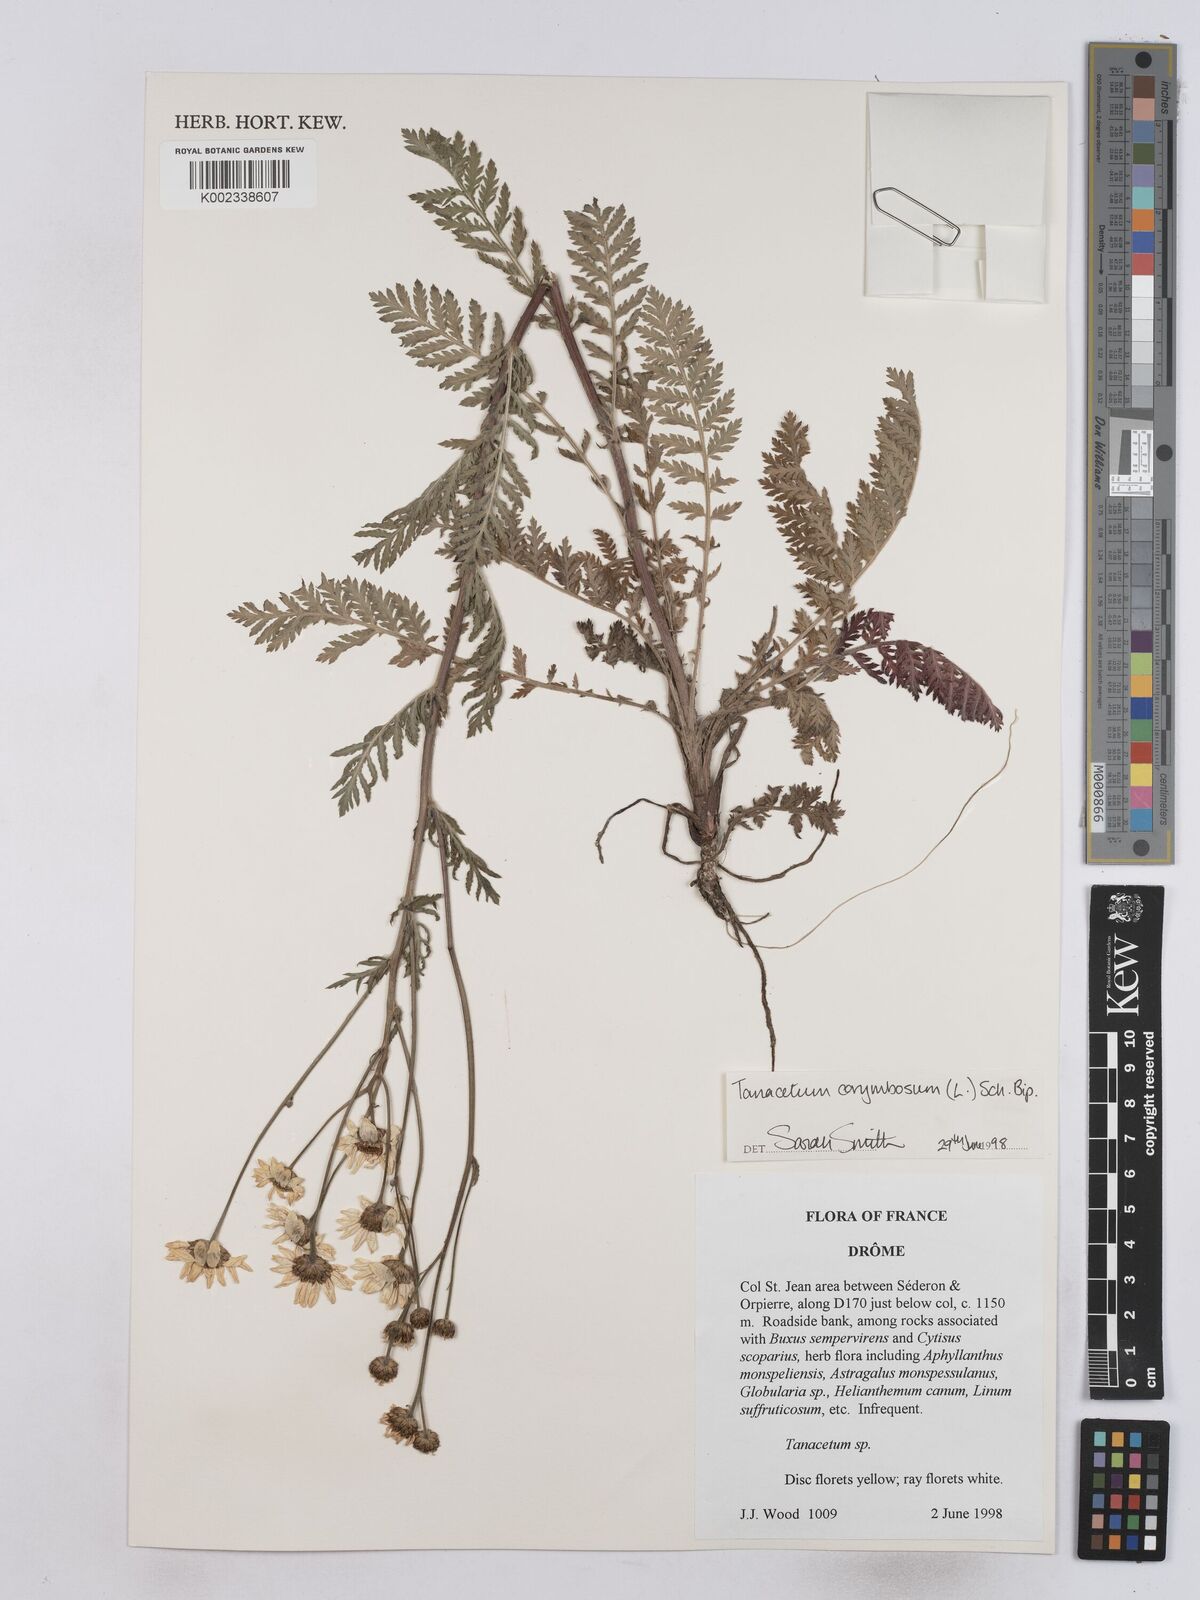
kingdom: Plantae
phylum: Tracheophyta
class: Magnoliopsida
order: Asterales
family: Asteraceae
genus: Tanacetum
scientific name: Tanacetum corymbosum
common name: Scentless feverfew
